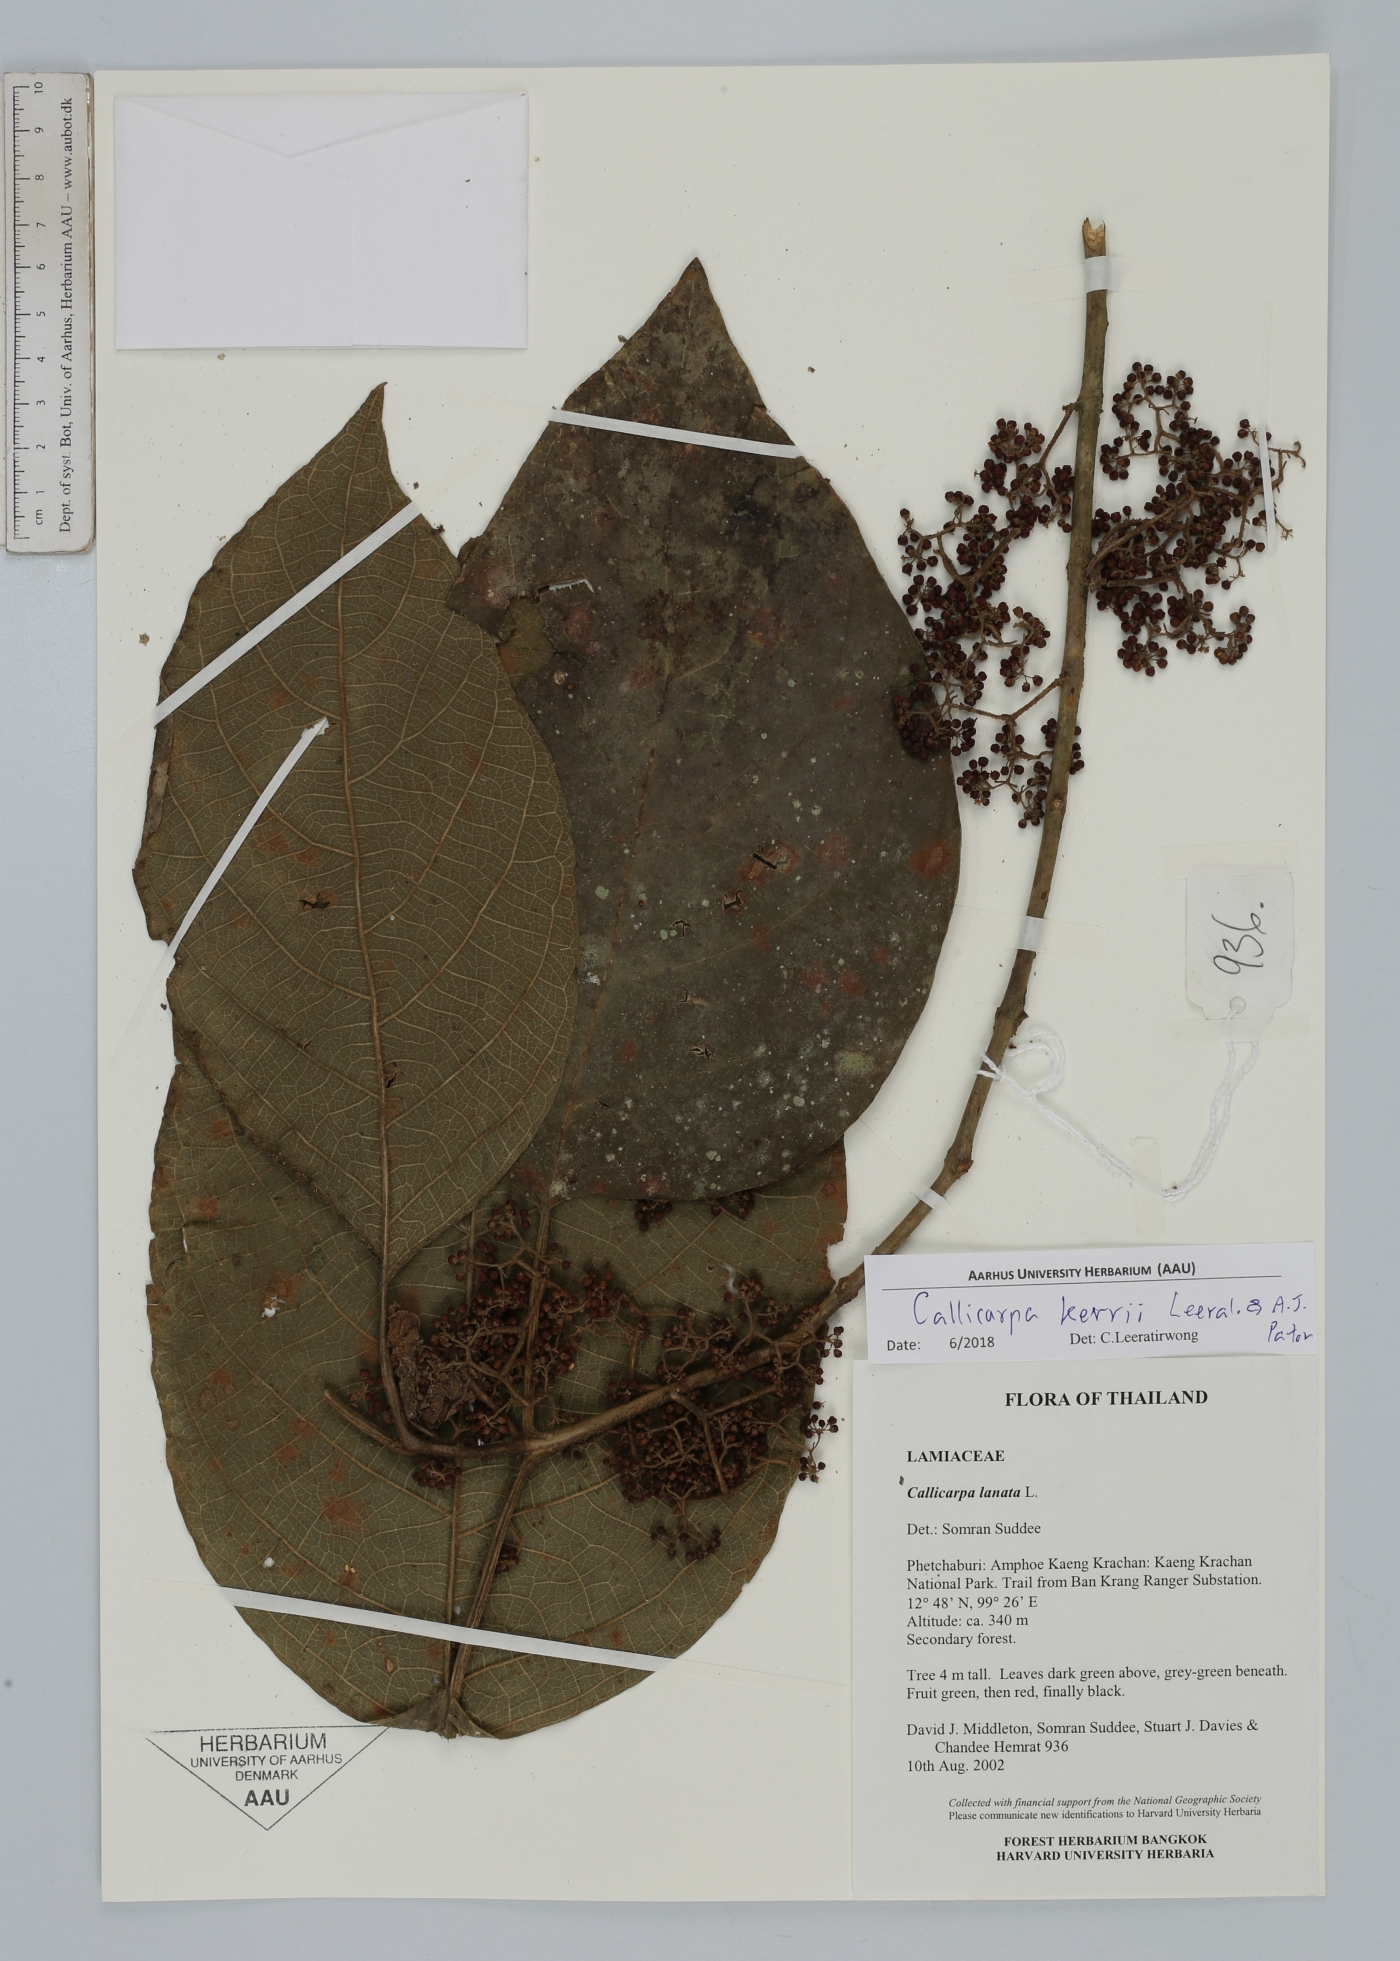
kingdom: Plantae
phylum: Tracheophyta
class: Magnoliopsida
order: Lamiales
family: Lamiaceae
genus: Callicarpa
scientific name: Callicarpa kerrii
